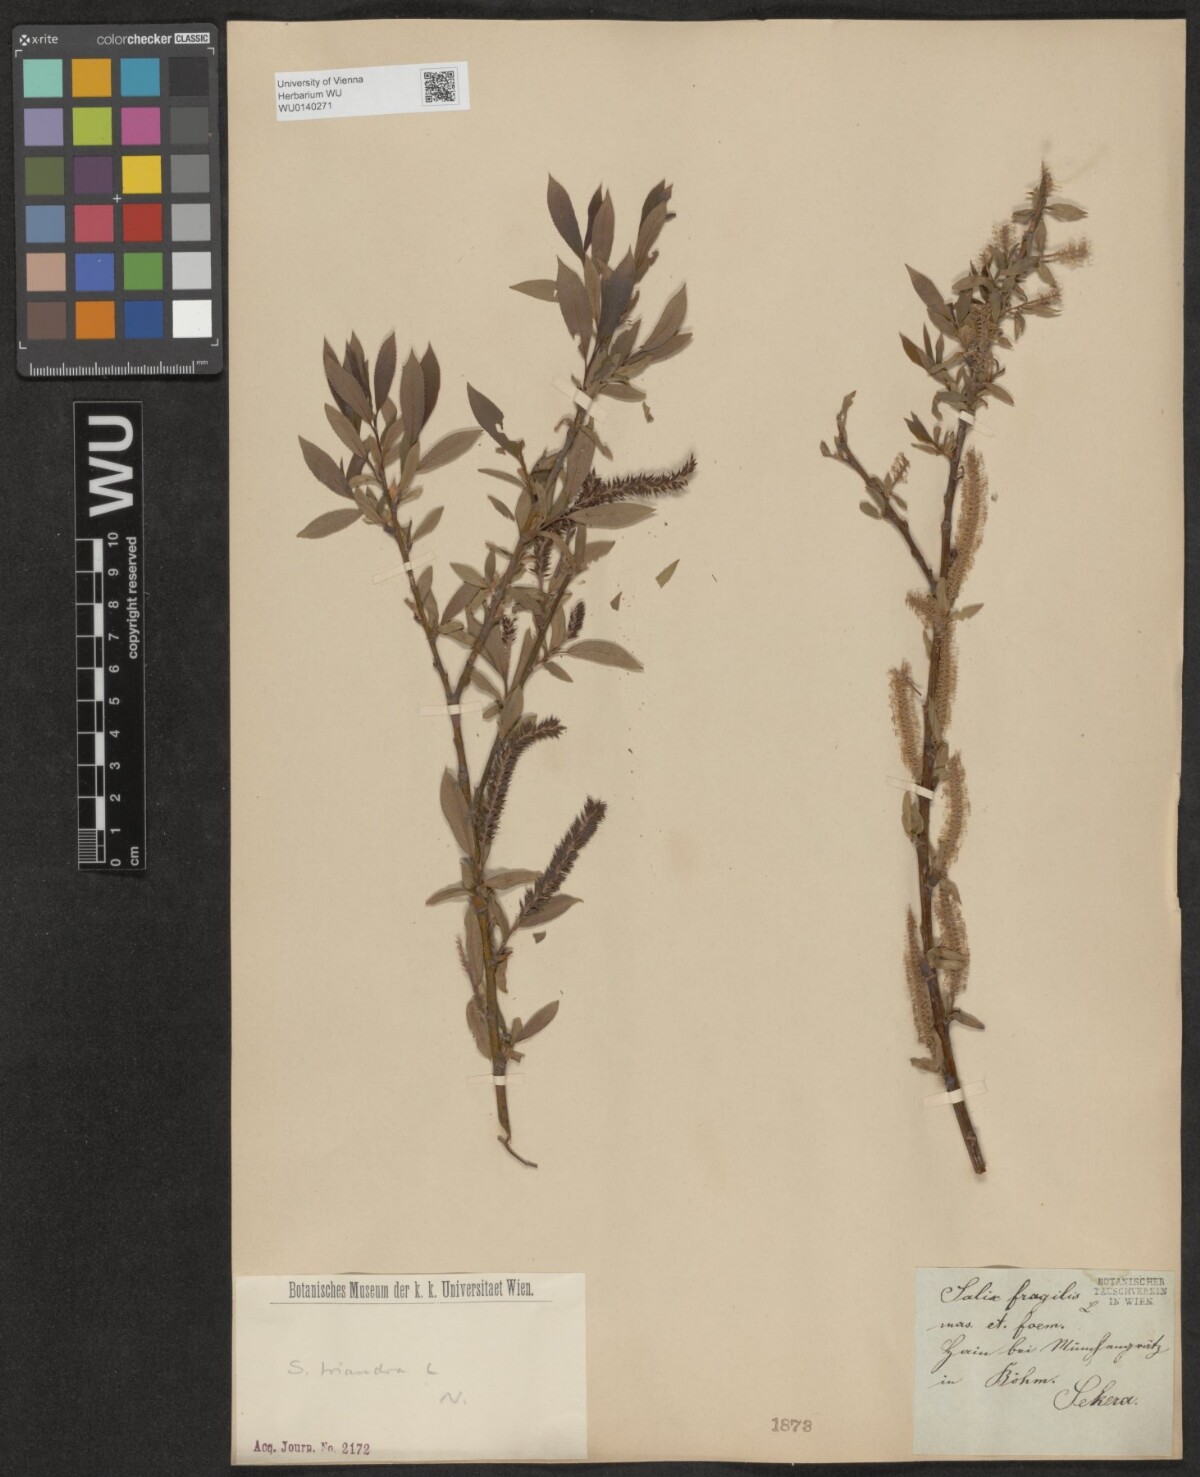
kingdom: Plantae
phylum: Tracheophyta
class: Magnoliopsida
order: Malpighiales
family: Salicaceae
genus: Salix
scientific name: Salix triandra
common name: Almond willow
